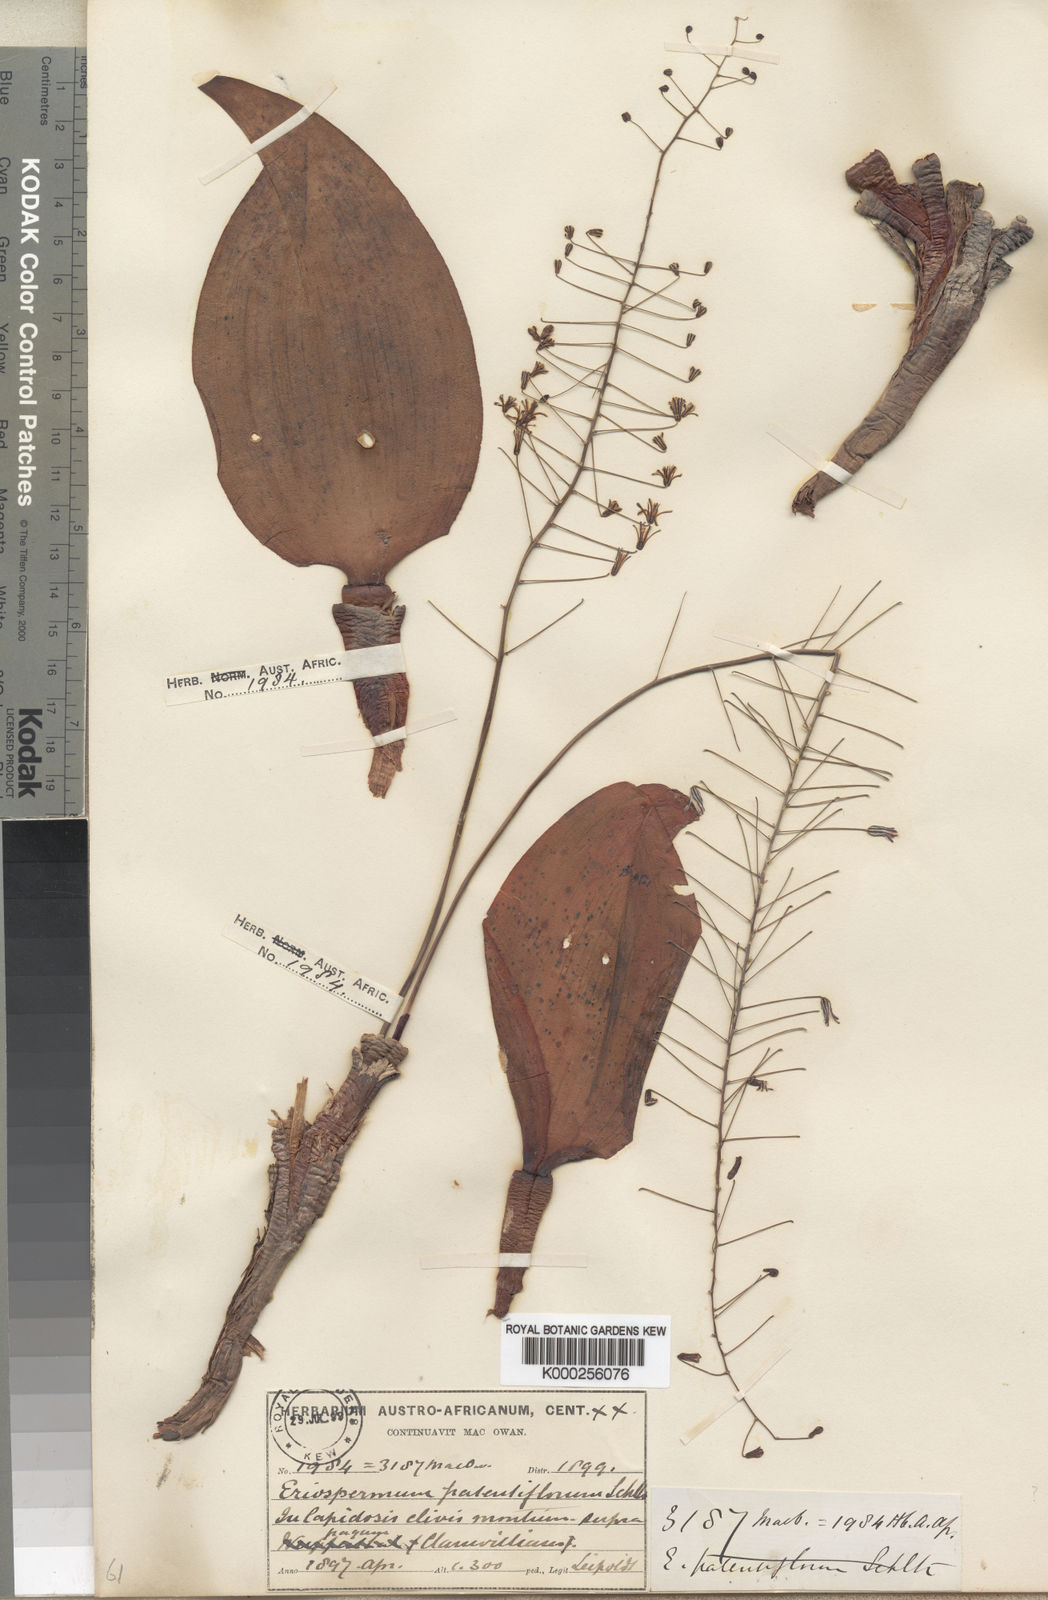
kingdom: Plantae
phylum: Tracheophyta
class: Liliopsida
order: Asparagales
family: Asparagaceae
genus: Eriospermum
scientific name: Eriospermum patentiflorum
